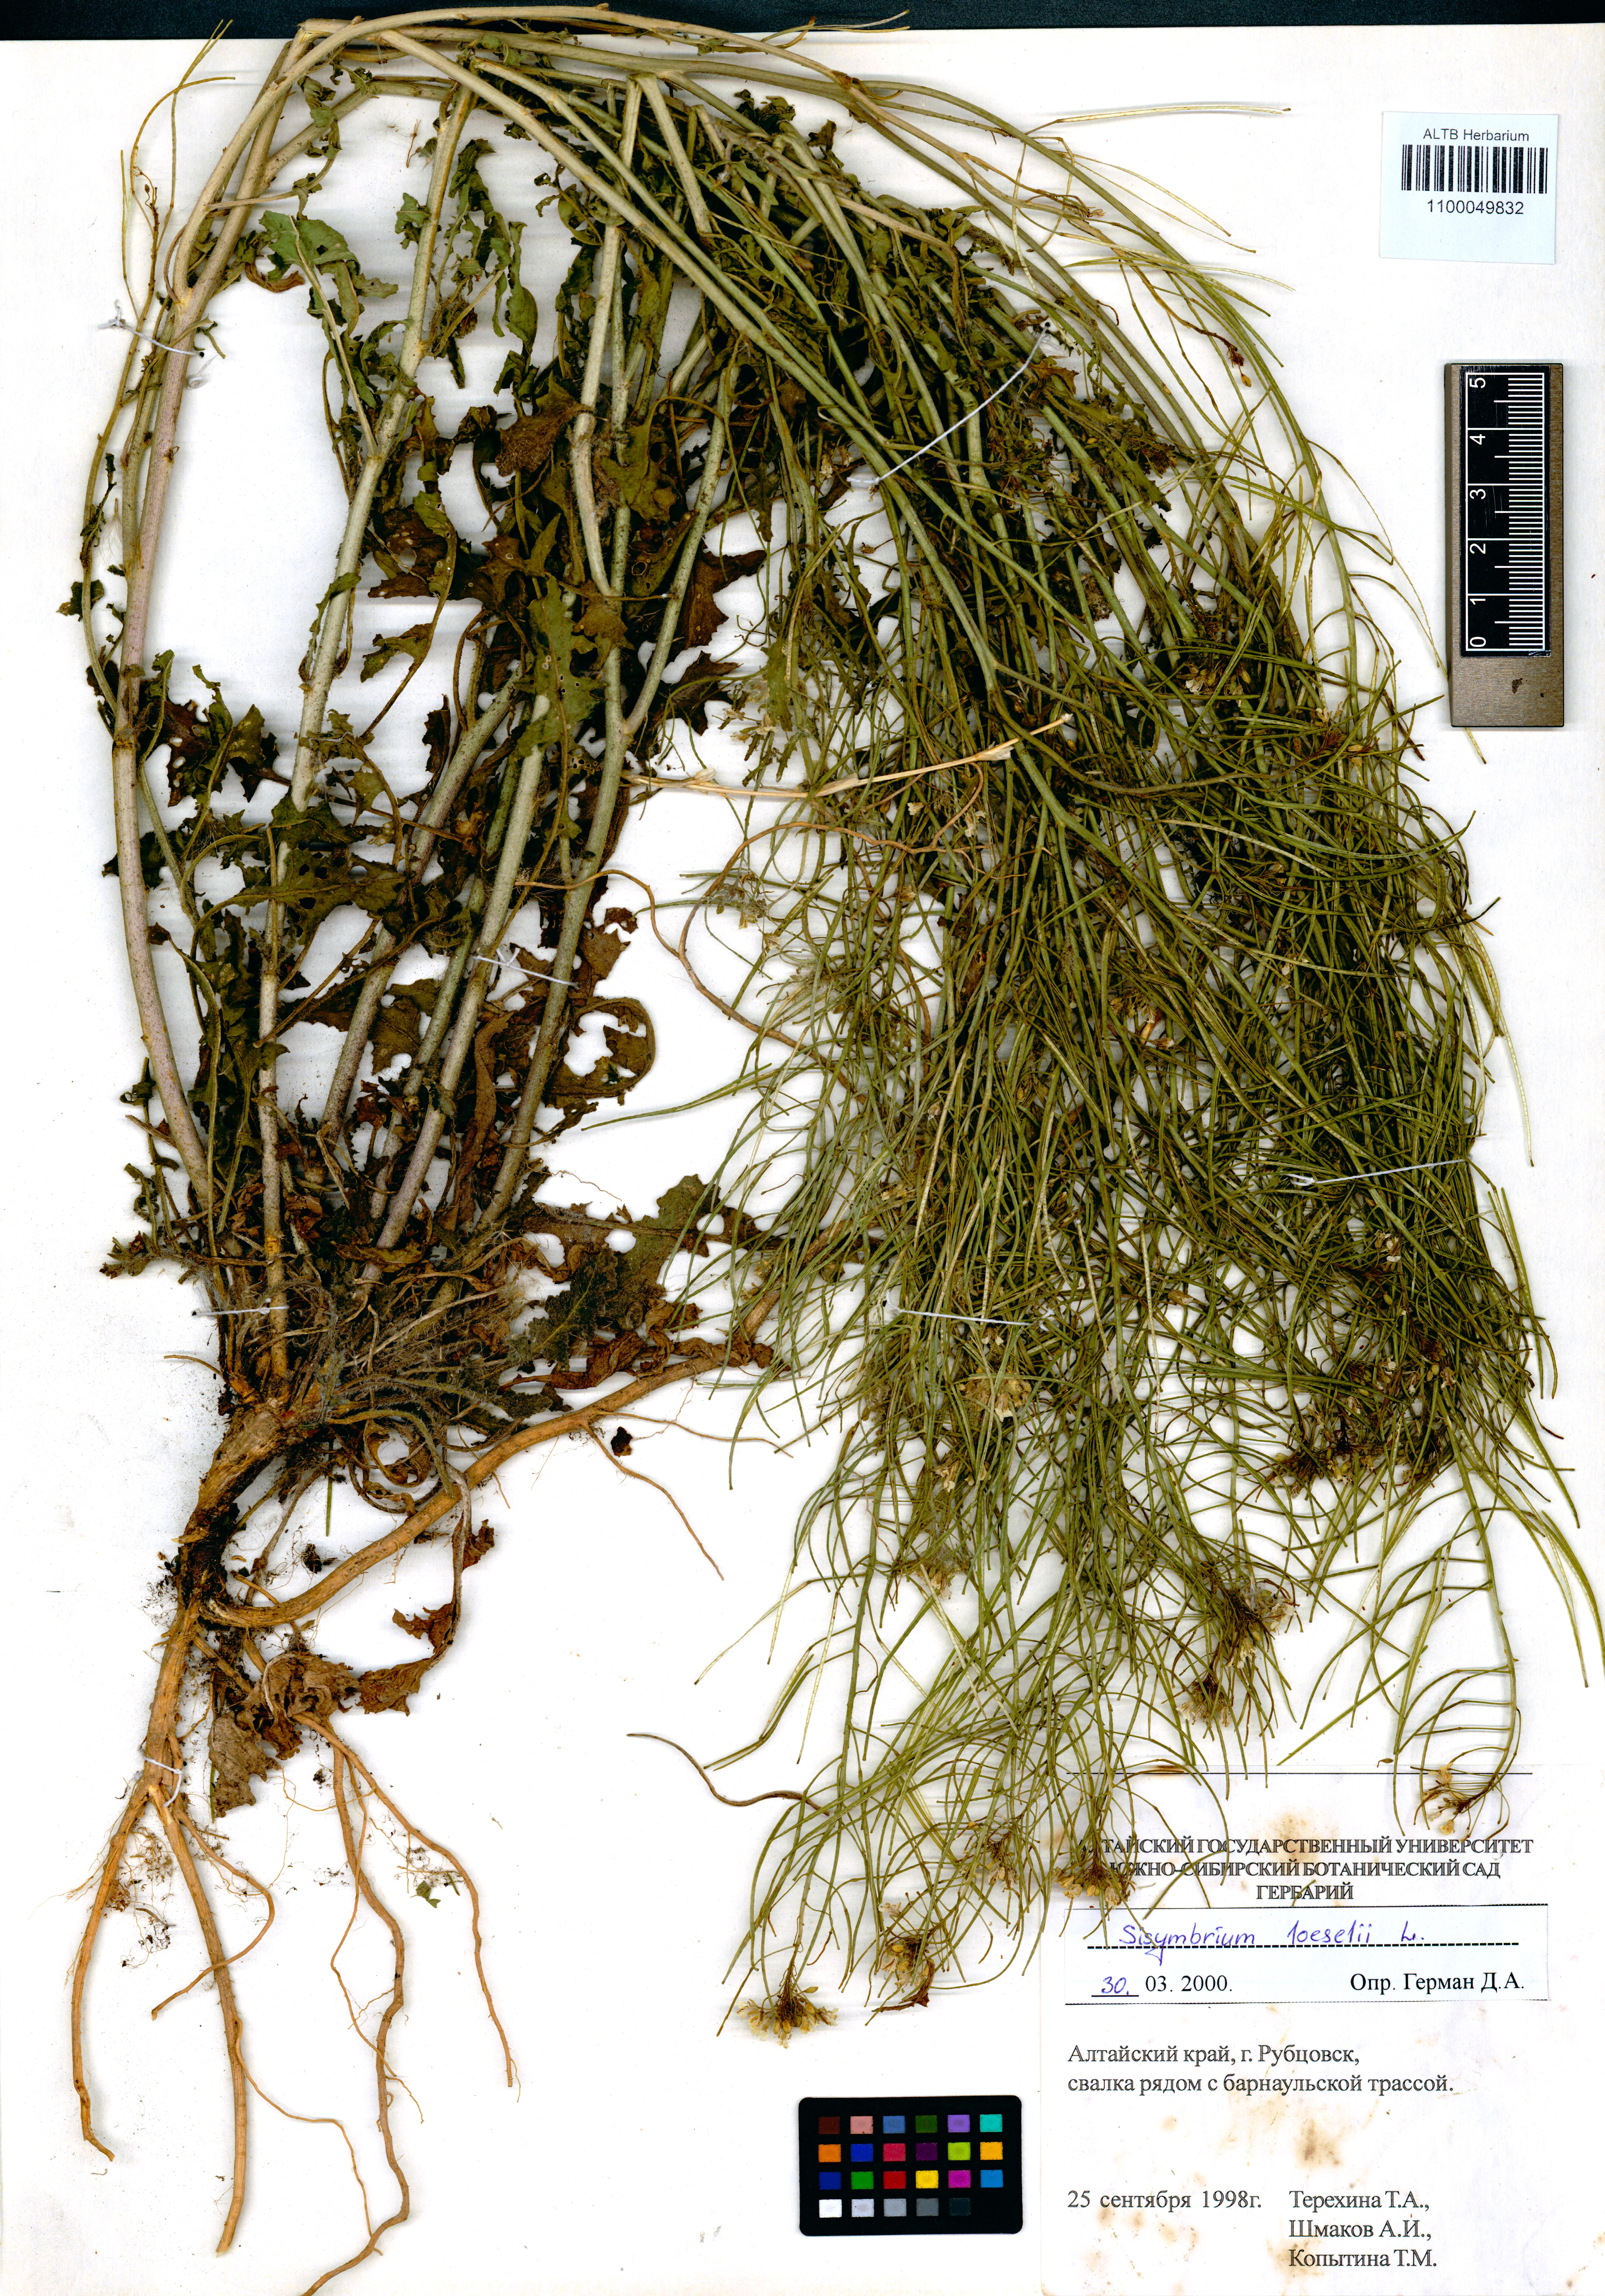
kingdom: Plantae
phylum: Tracheophyta
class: Magnoliopsida
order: Brassicales
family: Brassicaceae
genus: Sisymbrium
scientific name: Sisymbrium loeselii
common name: False london-rocket
